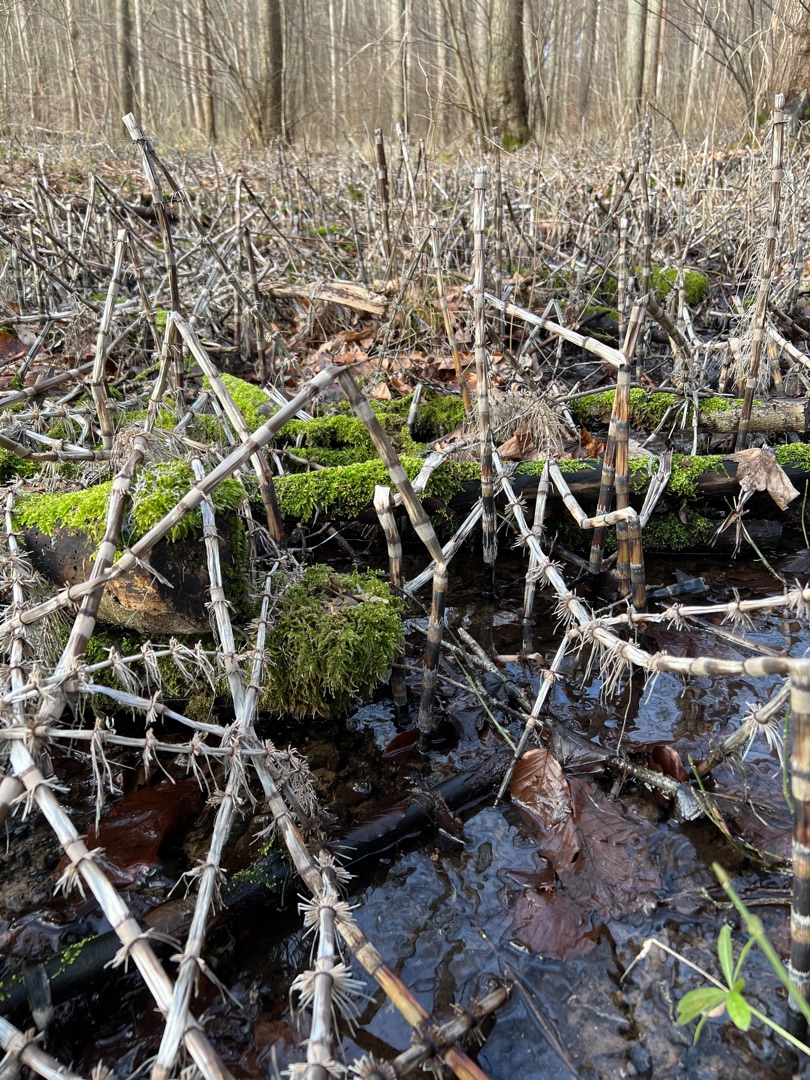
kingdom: Plantae
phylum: Tracheophyta
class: Polypodiopsida
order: Equisetales
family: Equisetaceae
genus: Equisetum
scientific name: Equisetum telmateia
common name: Elfenbens-padderok
